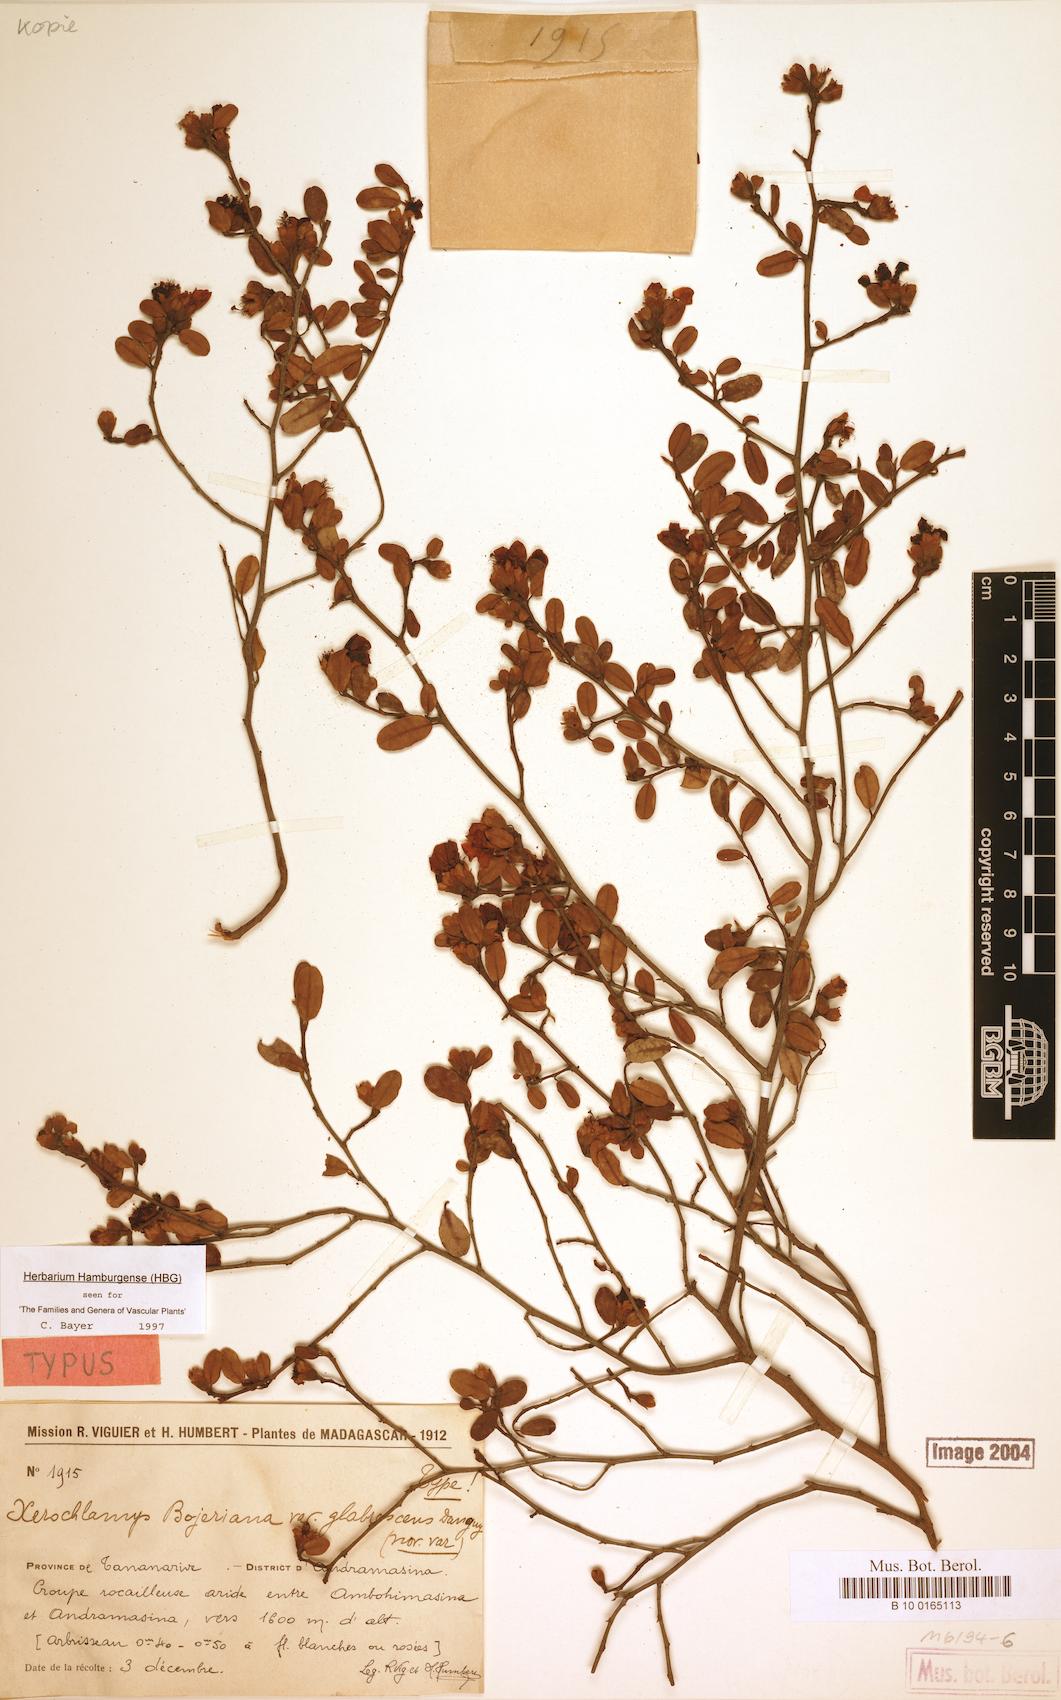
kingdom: Plantae
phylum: Tracheophyta
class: Magnoliopsida
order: Malvales
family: Sarcolaenaceae
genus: Xerochlamys
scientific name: Xerochlamys bojeriana
